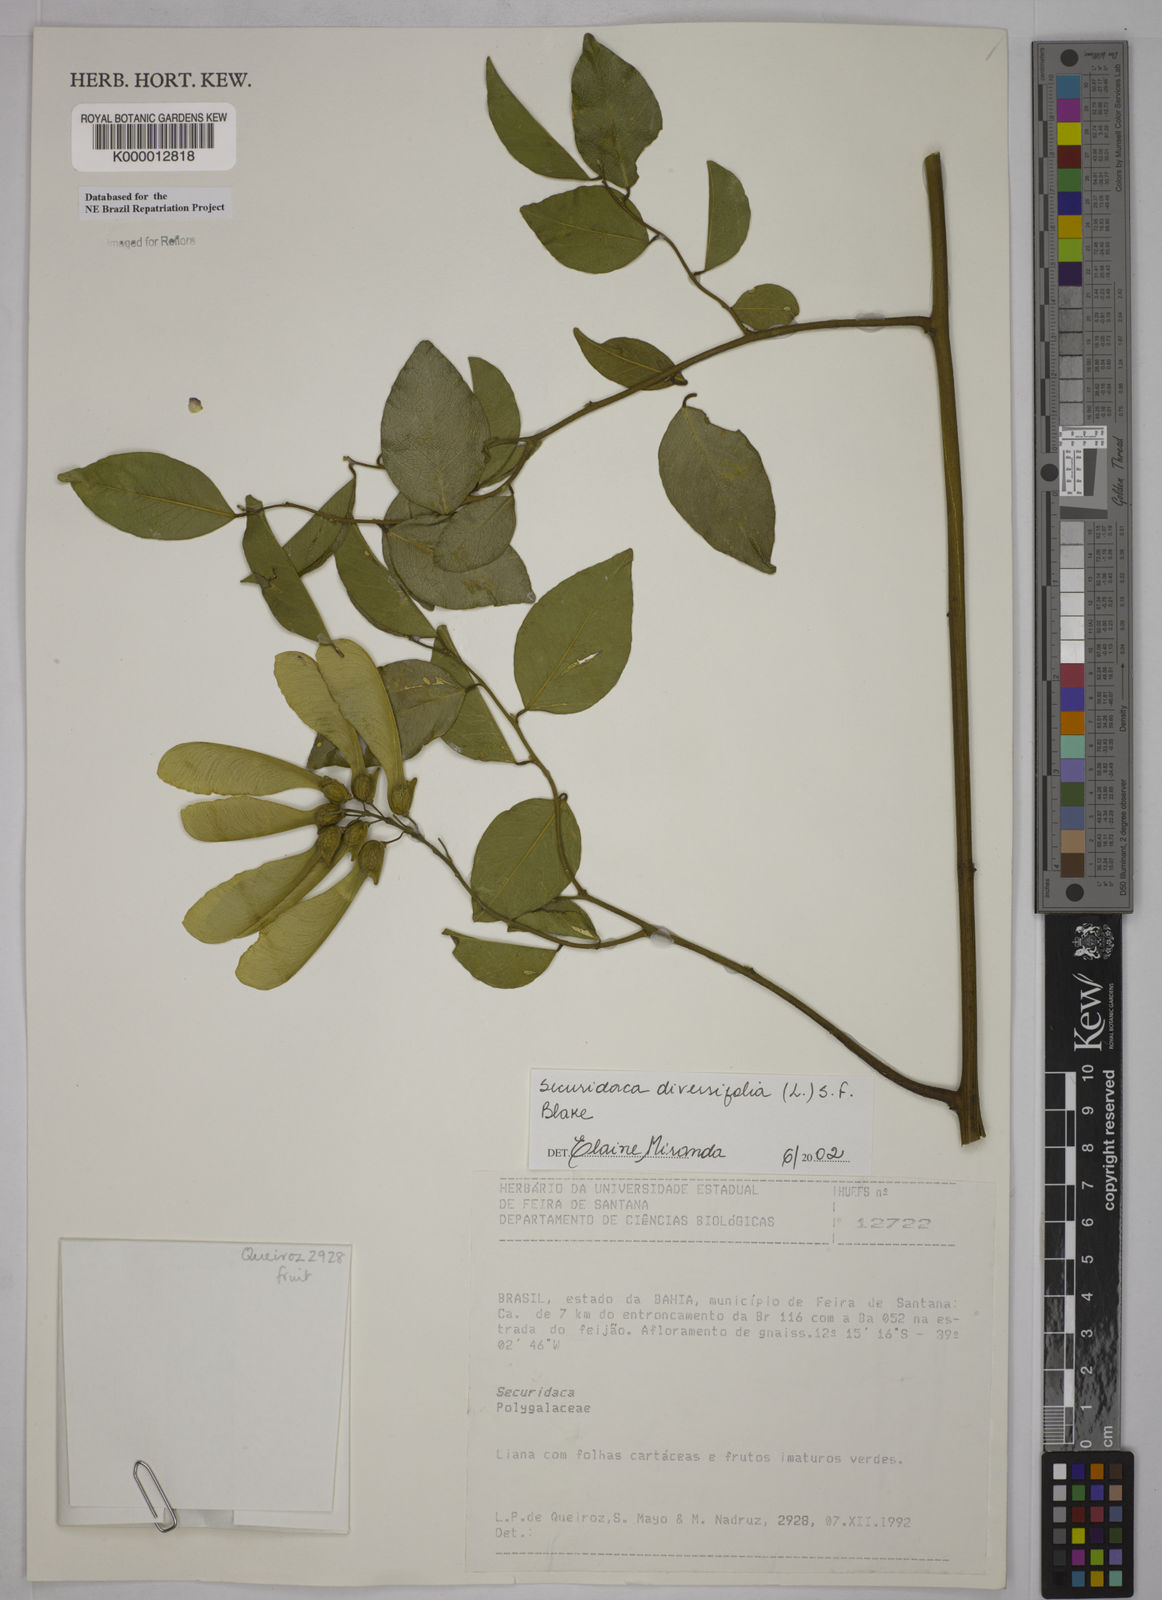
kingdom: Plantae
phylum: Tracheophyta
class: Magnoliopsida
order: Fabales
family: Polygalaceae
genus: Securidaca
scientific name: Securidaca diversifolia
